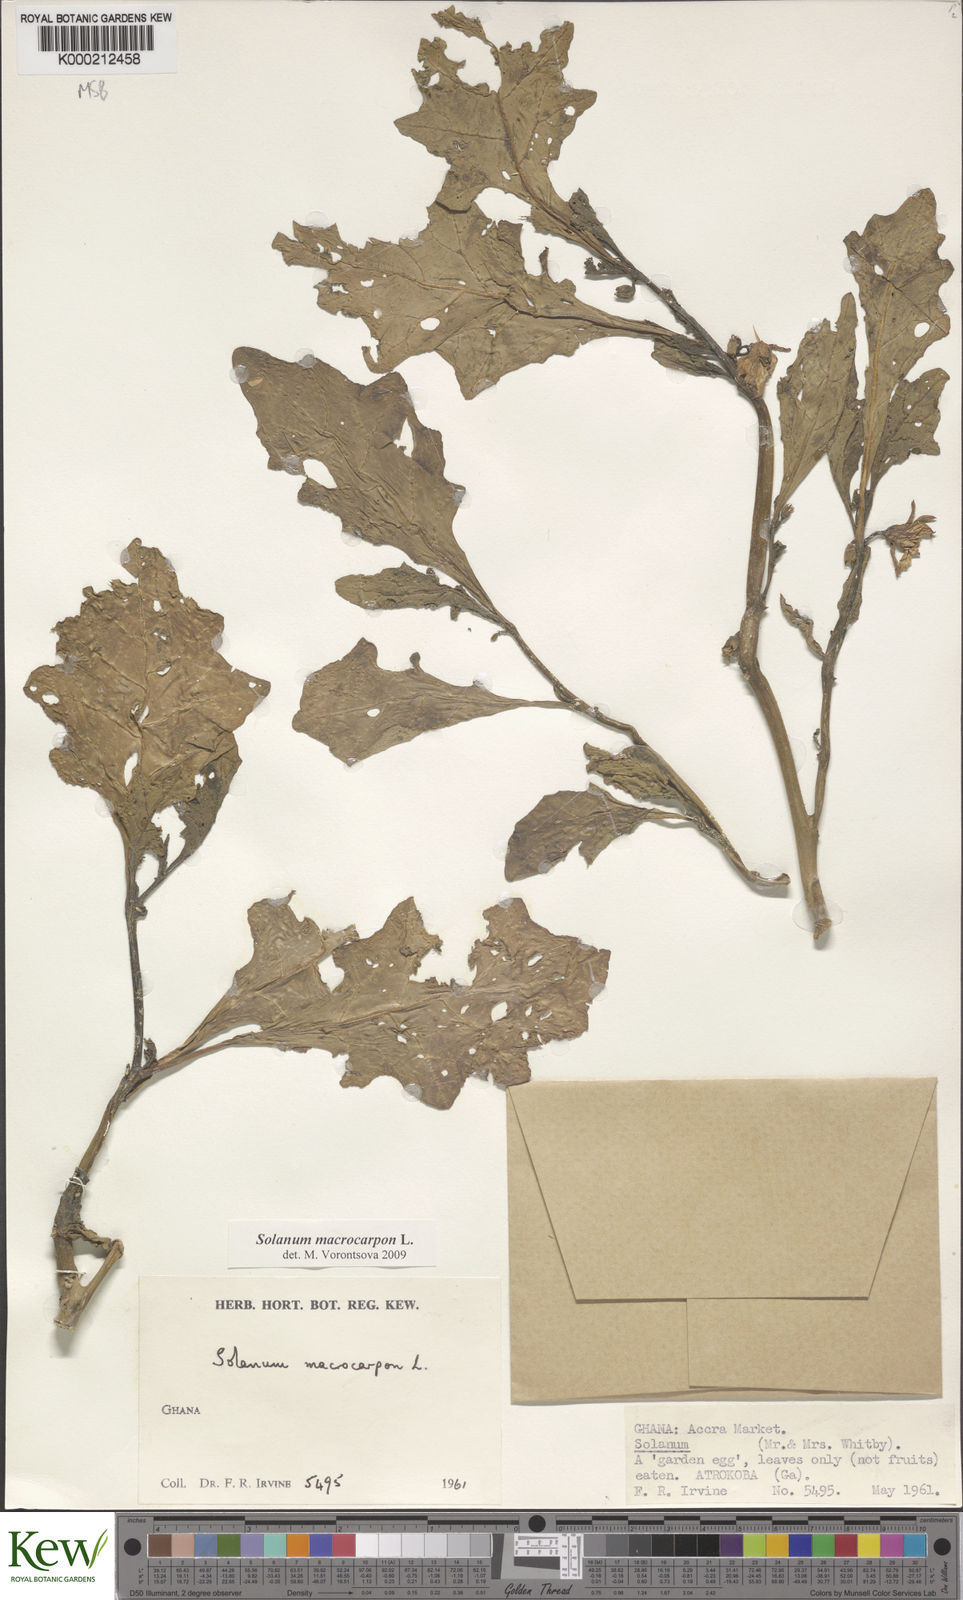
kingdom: Plantae
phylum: Tracheophyta
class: Magnoliopsida
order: Solanales
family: Solanaceae
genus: Solanum
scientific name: Solanum macrocarpon
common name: African eggplant
